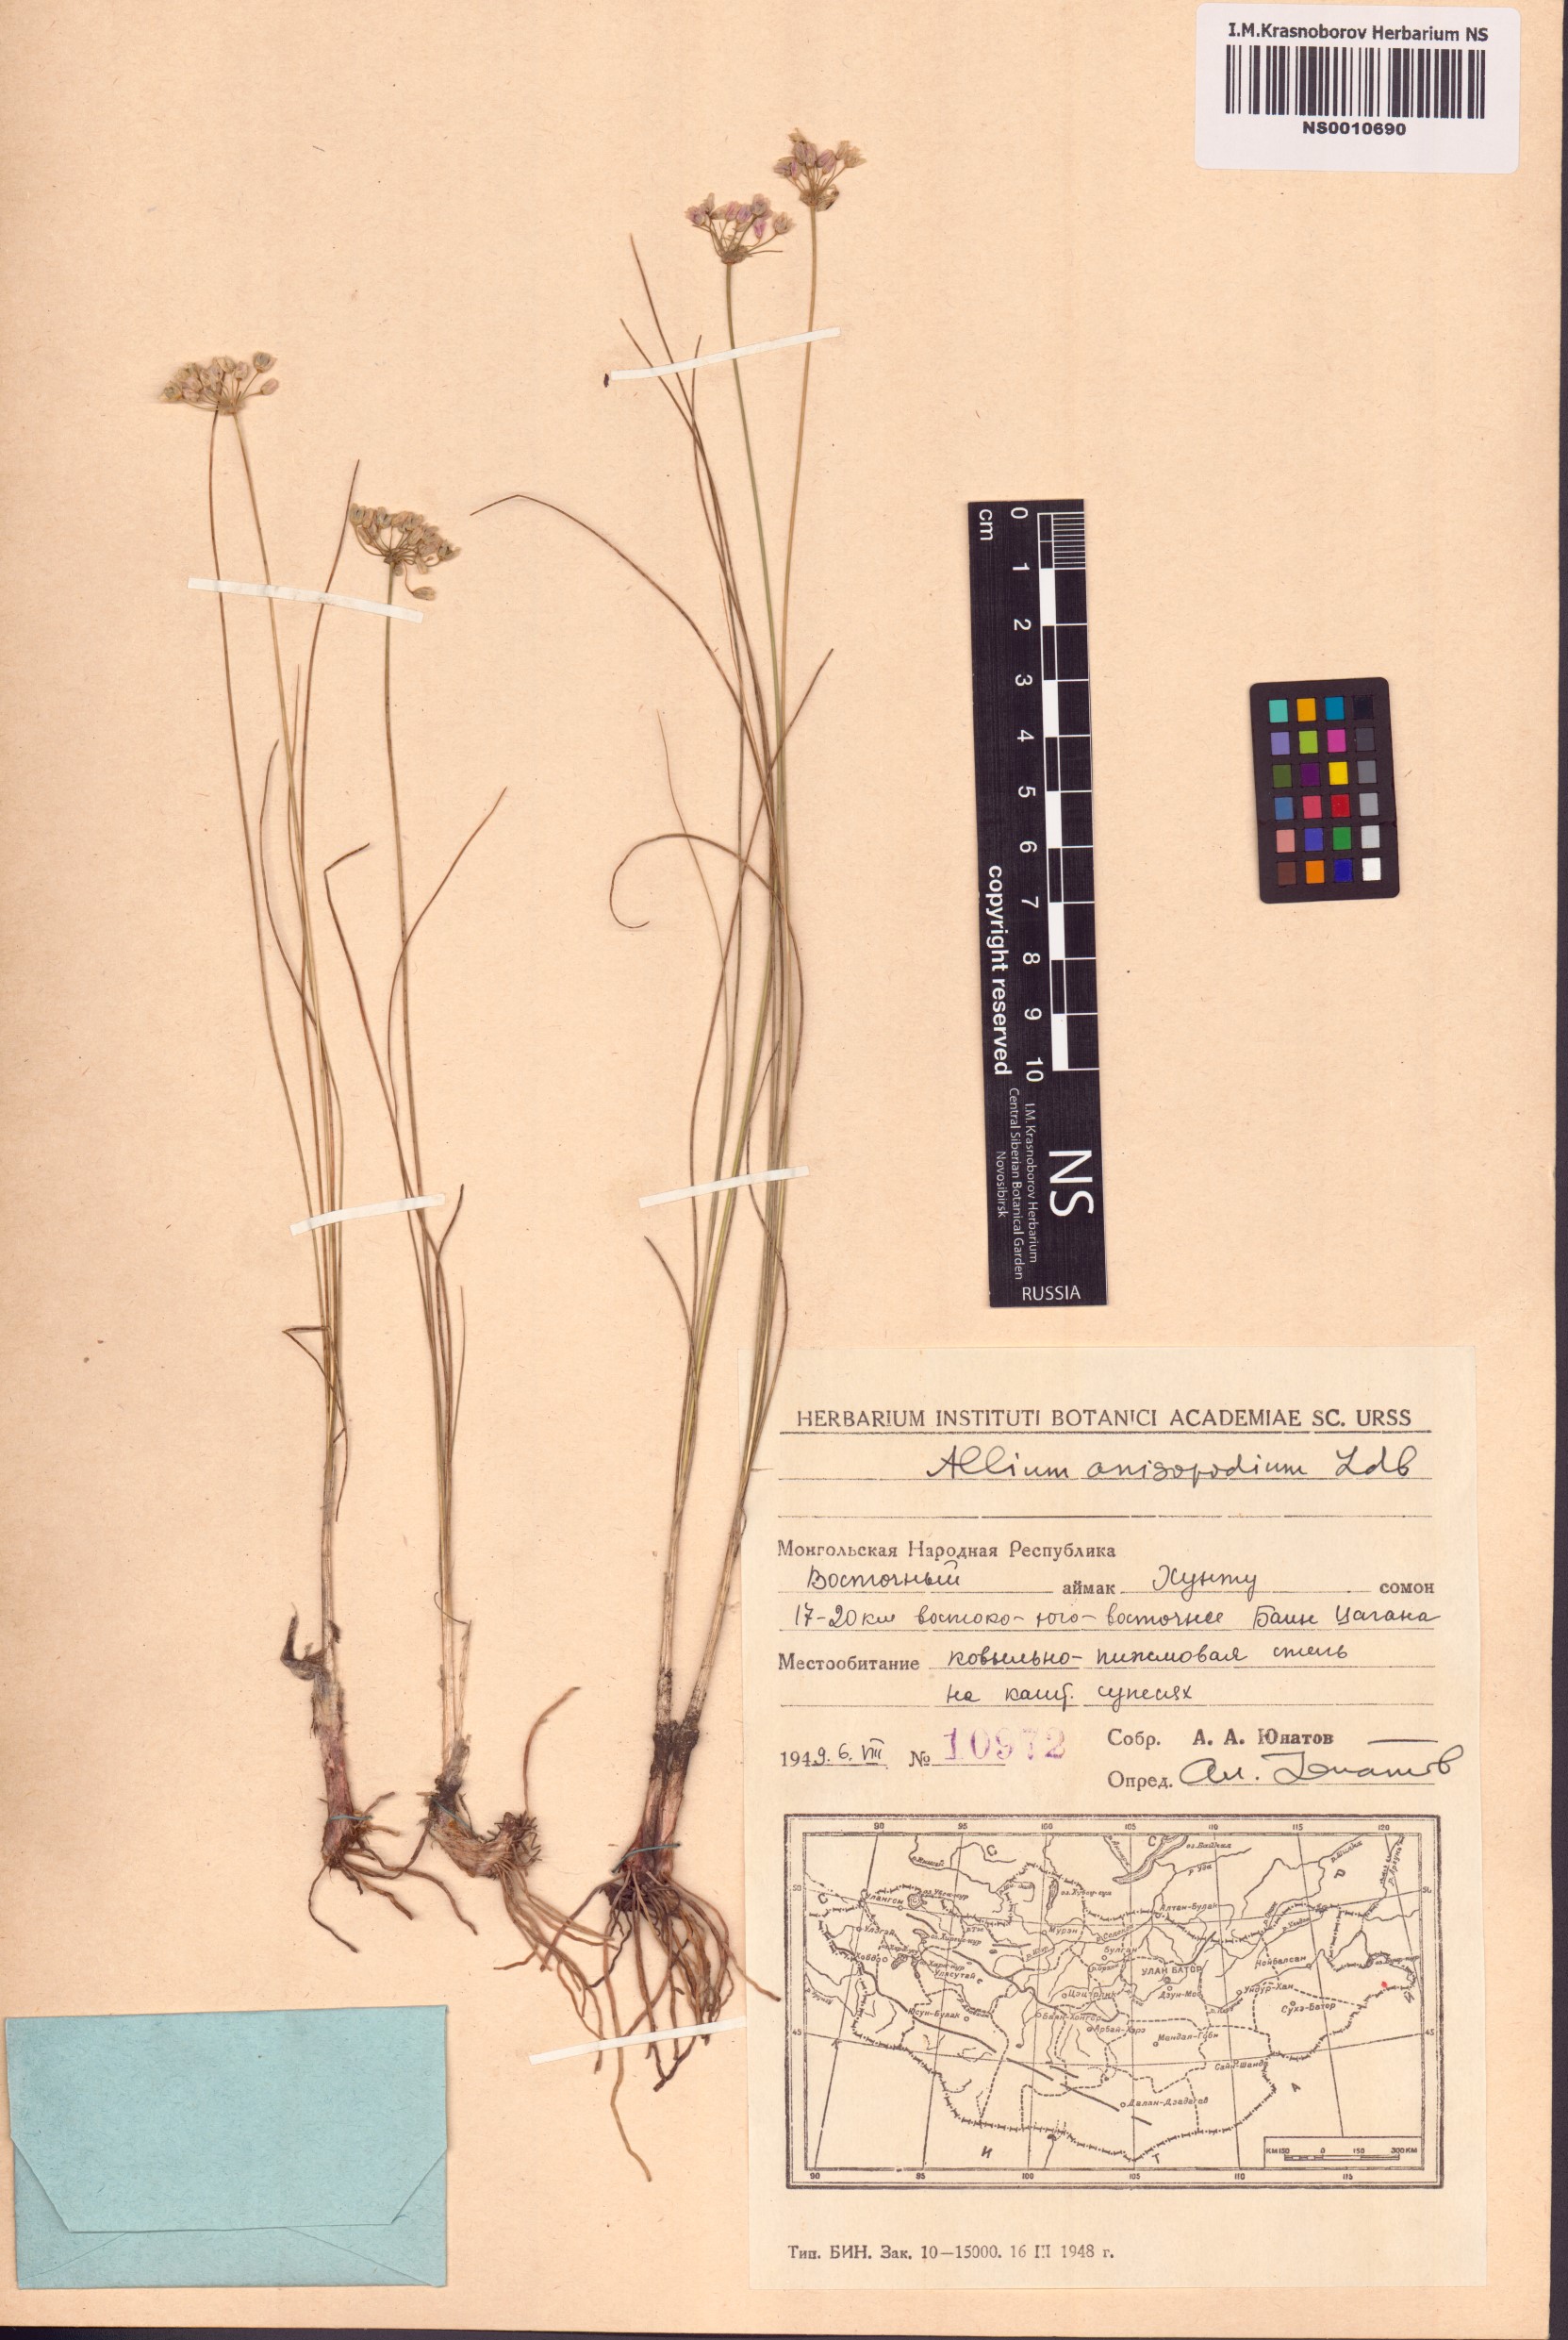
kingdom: Plantae
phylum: Tracheophyta
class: Liliopsida
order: Asparagales
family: Amaryllidaceae
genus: Allium
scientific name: Allium anisopodium
